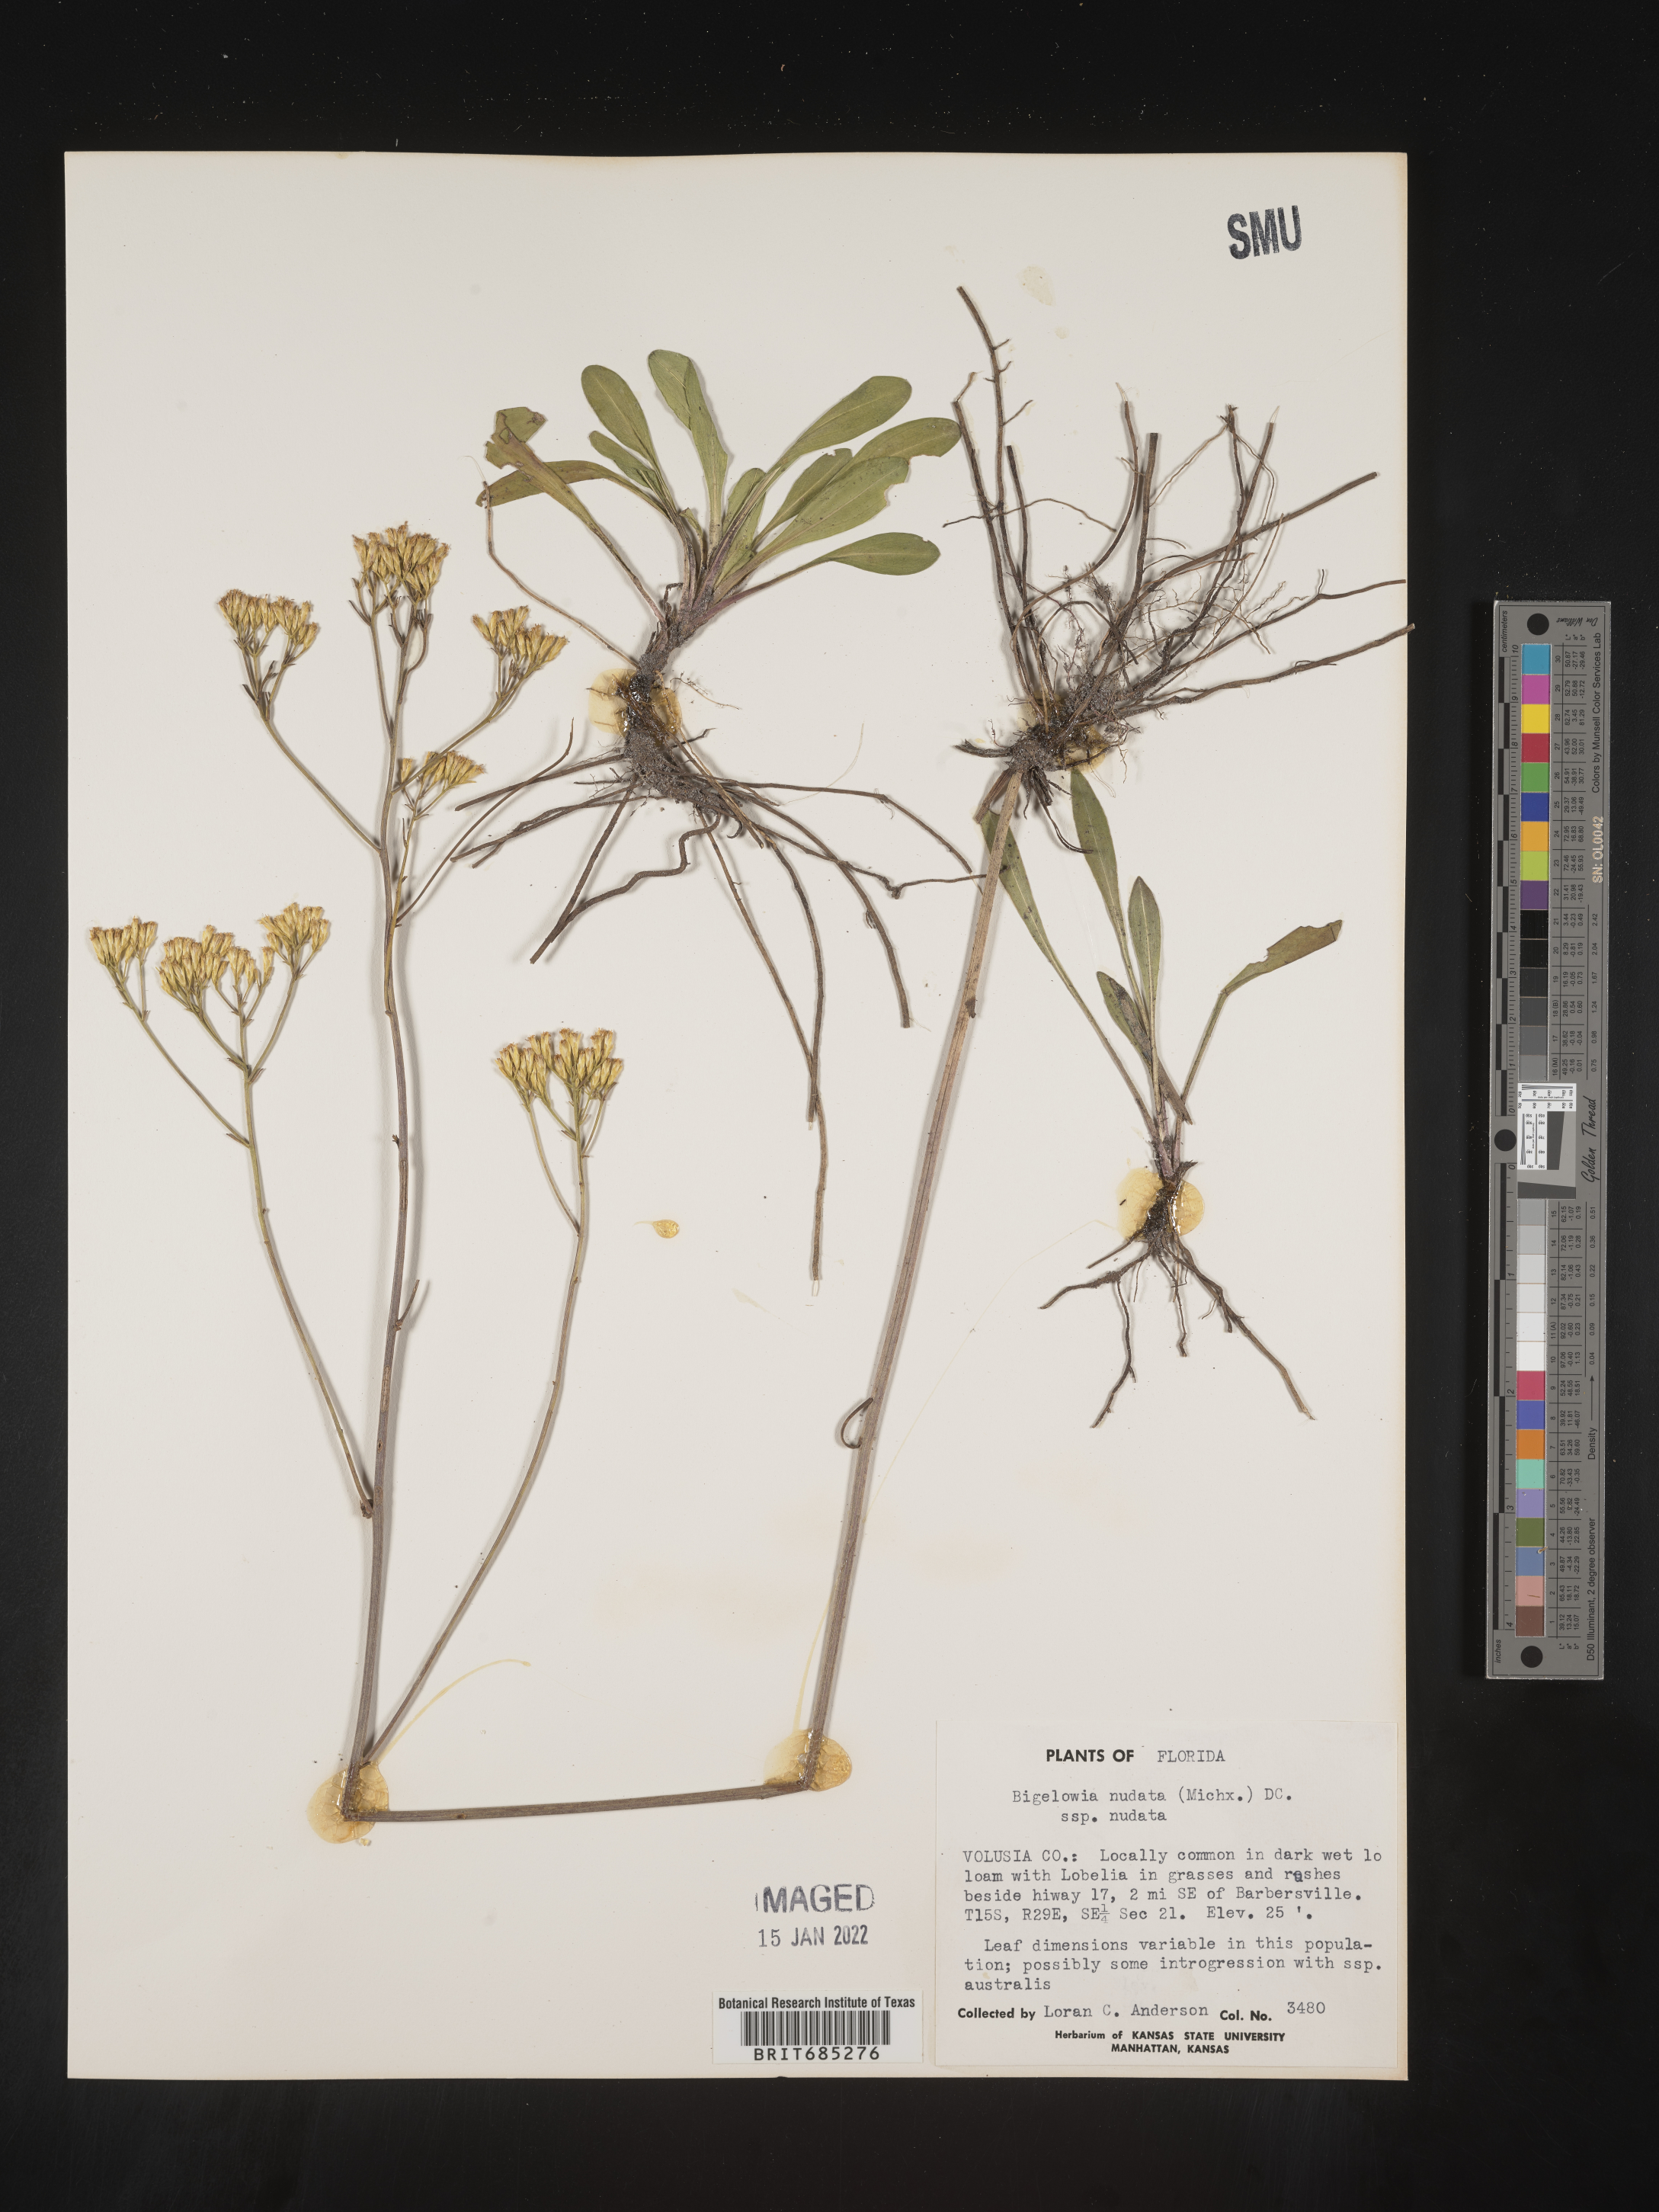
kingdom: Plantae
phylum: Tracheophyta
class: Magnoliopsida
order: Asterales
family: Asteraceae
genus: Bigelowia
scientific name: Bigelowia nudata
